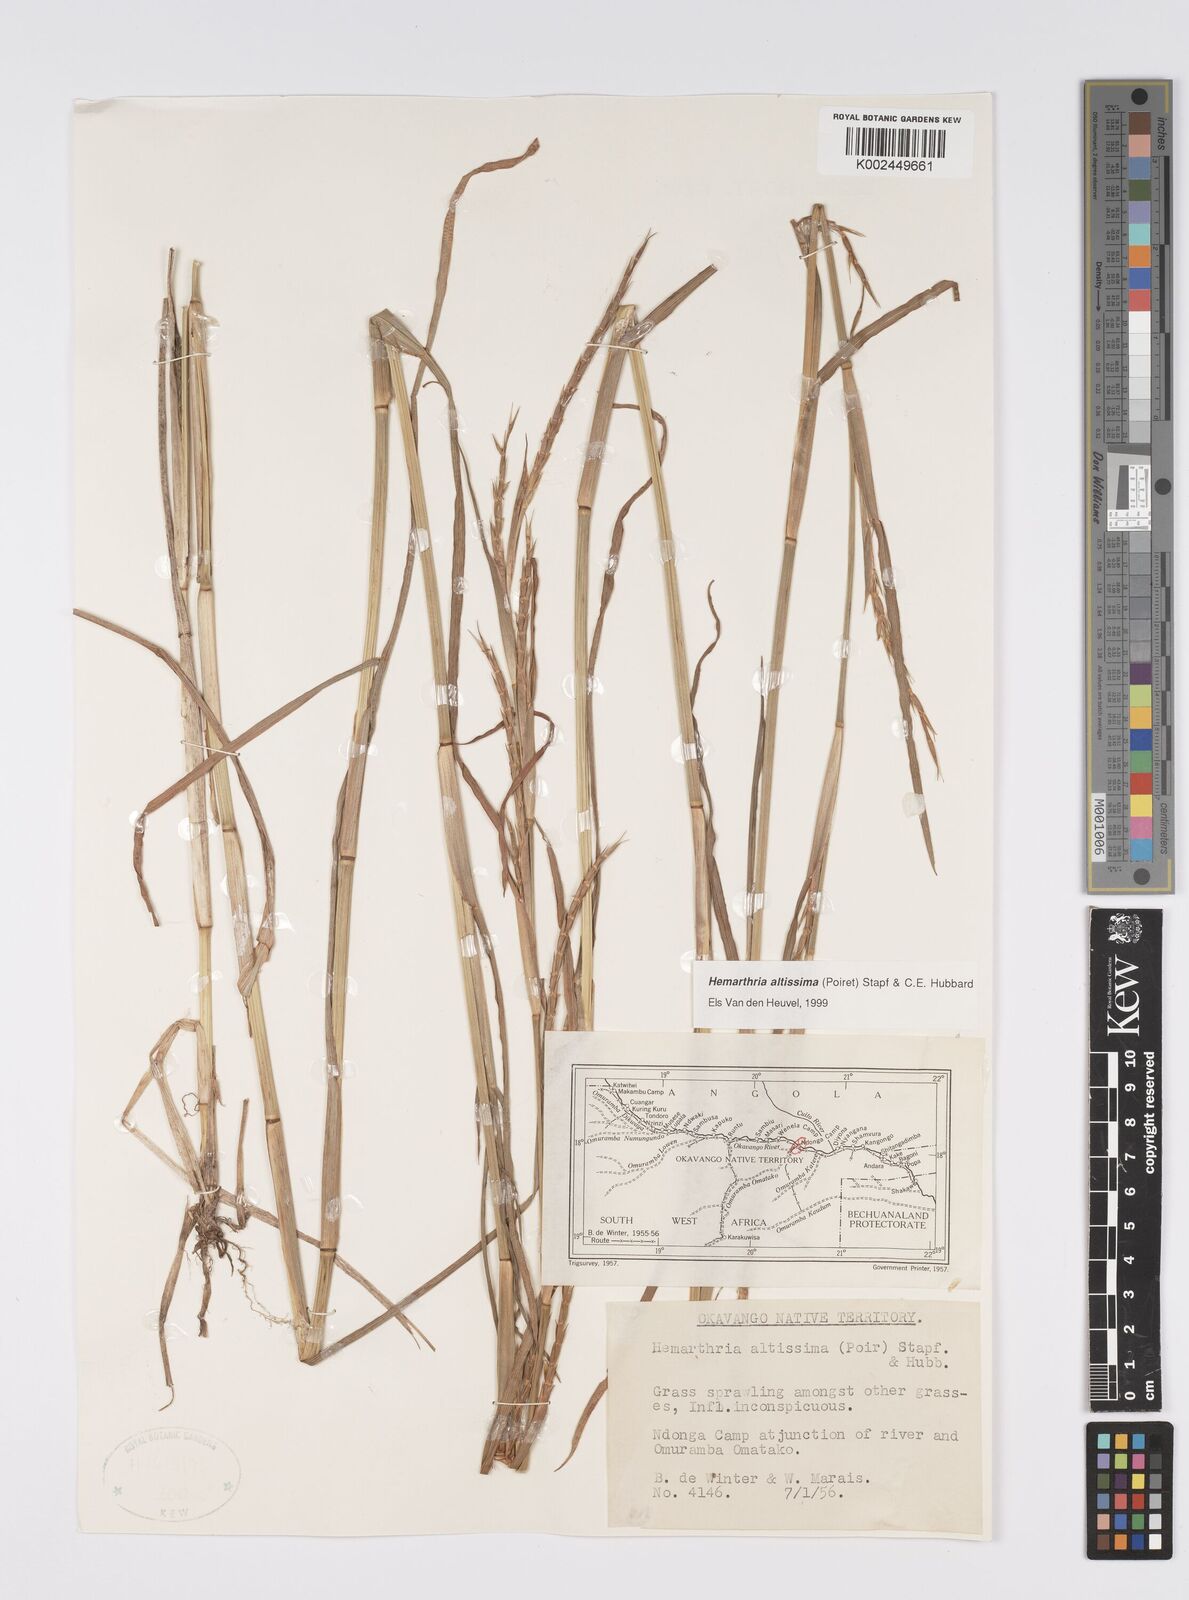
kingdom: Plantae
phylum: Tracheophyta
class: Liliopsida
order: Poales
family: Poaceae
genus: Hemarthria
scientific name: Hemarthria altissima
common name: African jointgrass
